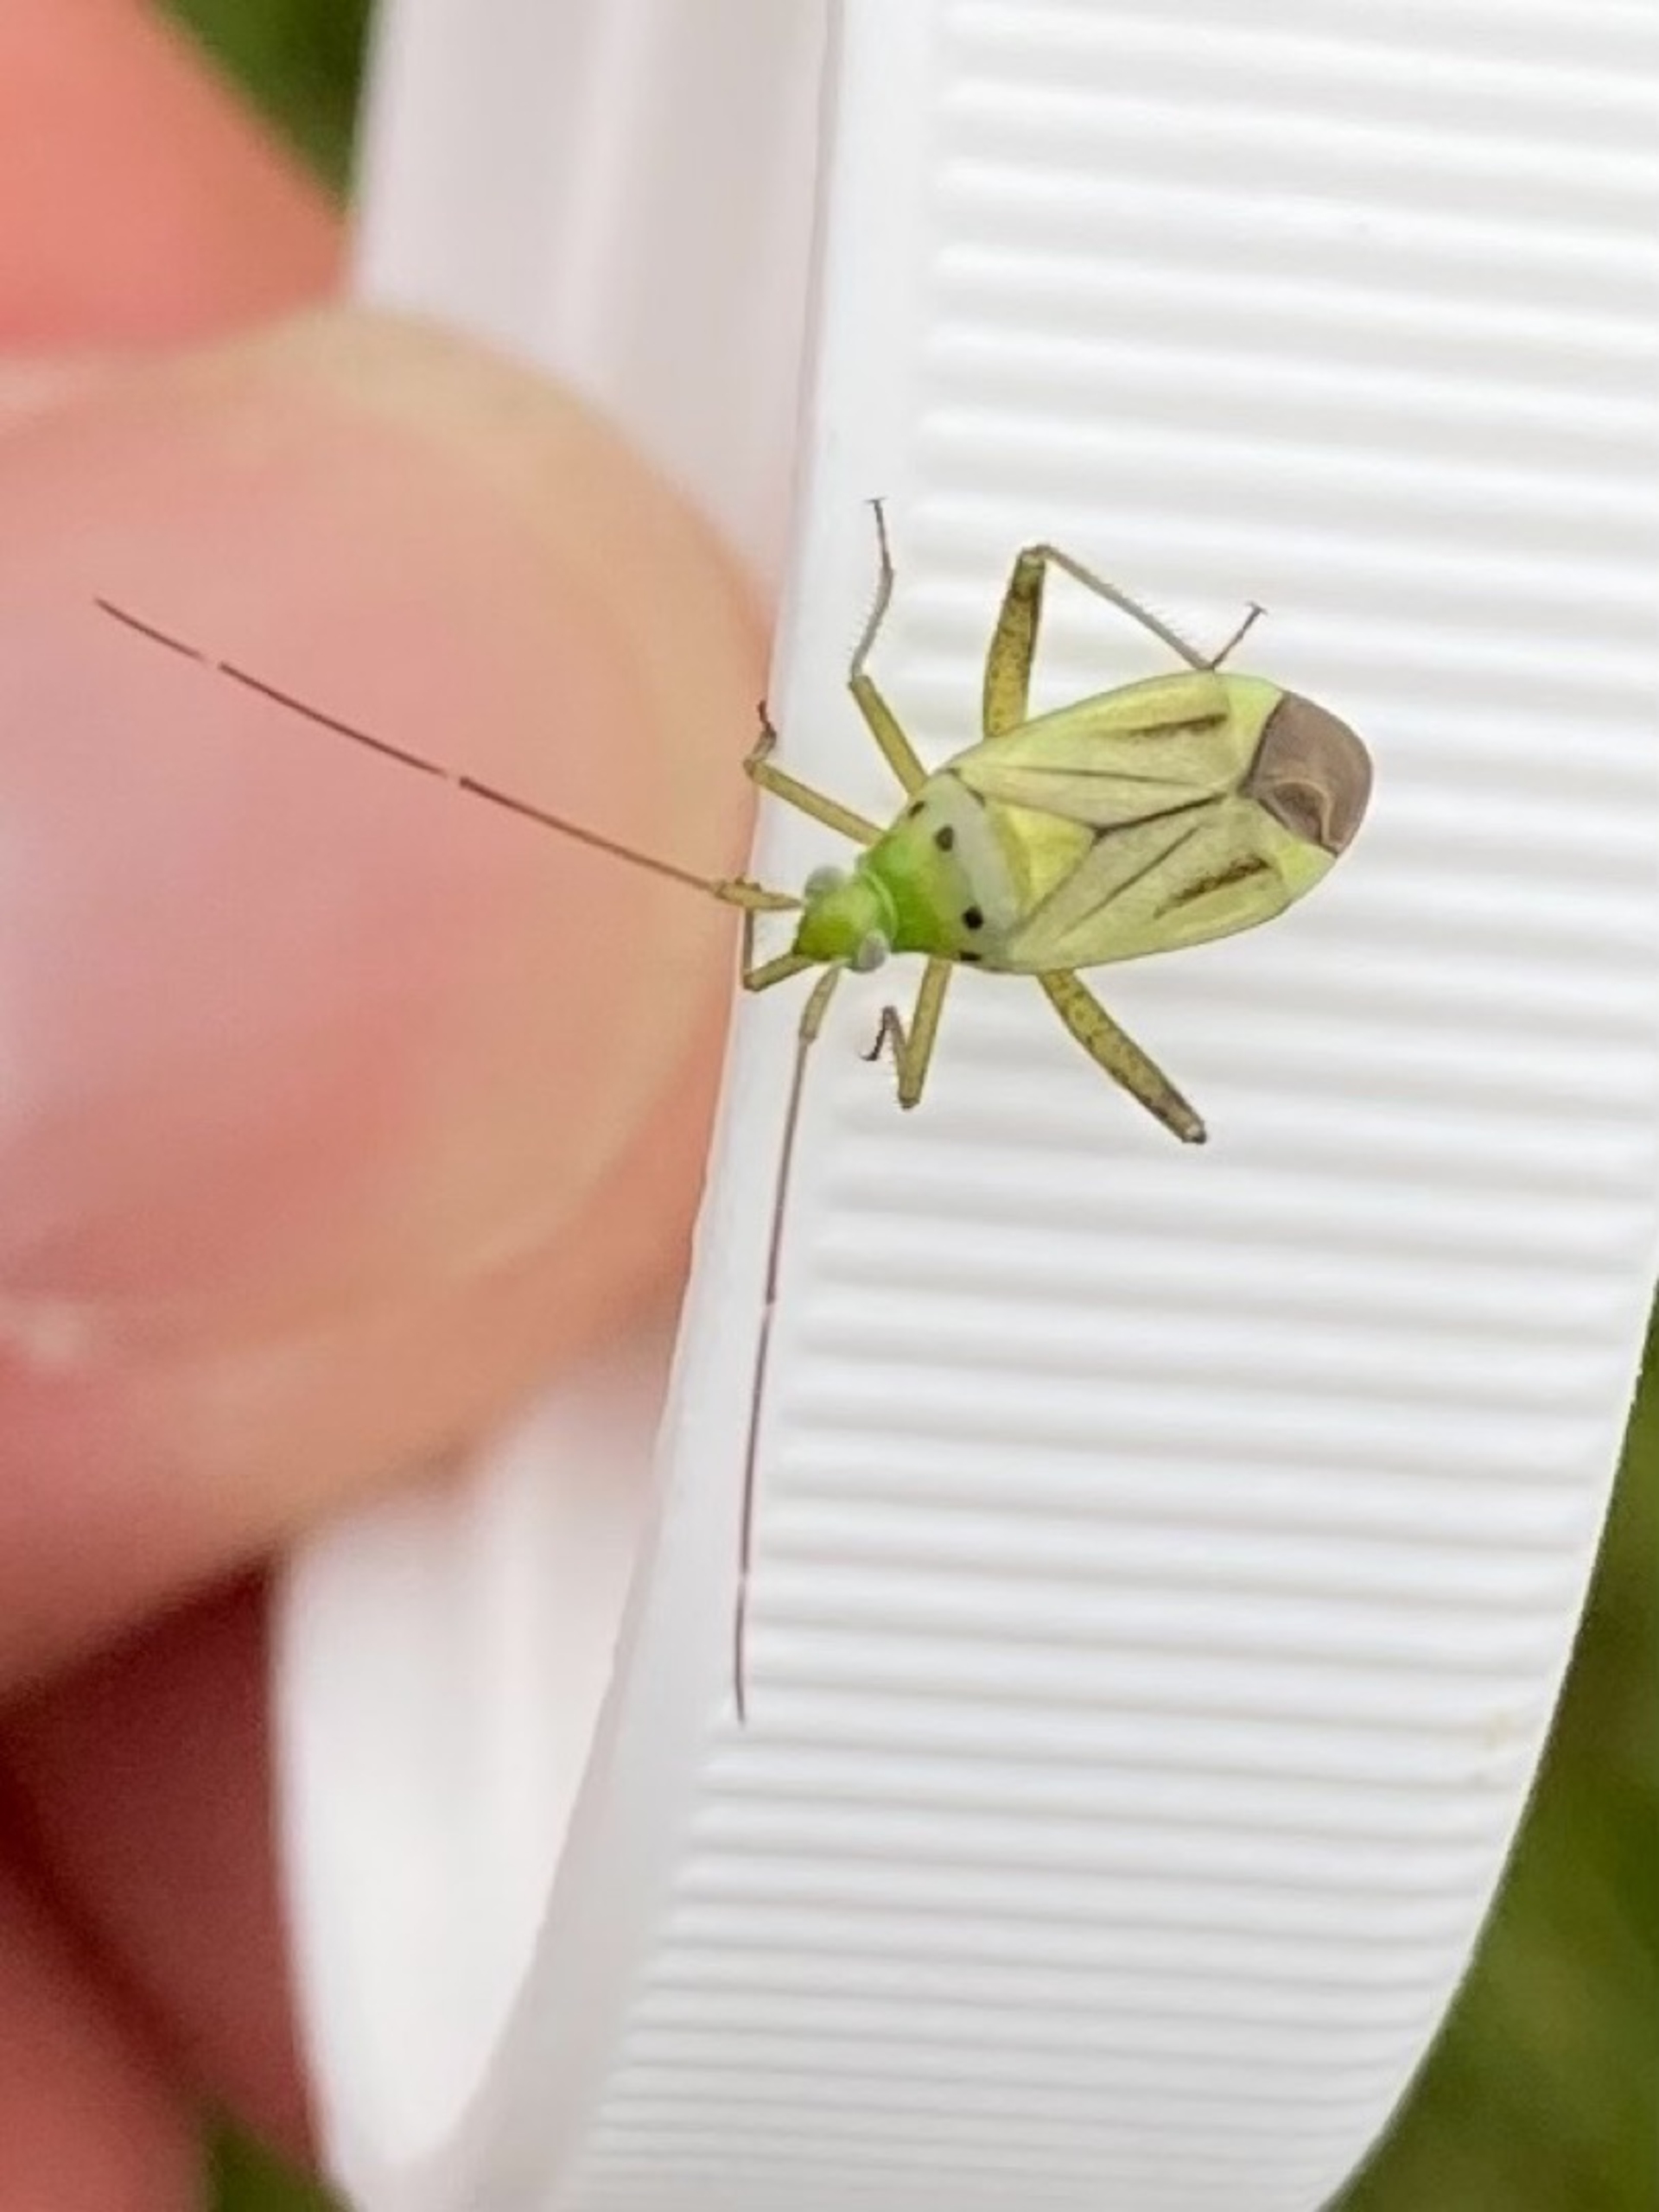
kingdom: Animalia
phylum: Arthropoda
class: Insecta
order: Hemiptera
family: Miridae
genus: Adelphocoris
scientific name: Adelphocoris quadripunctatus
